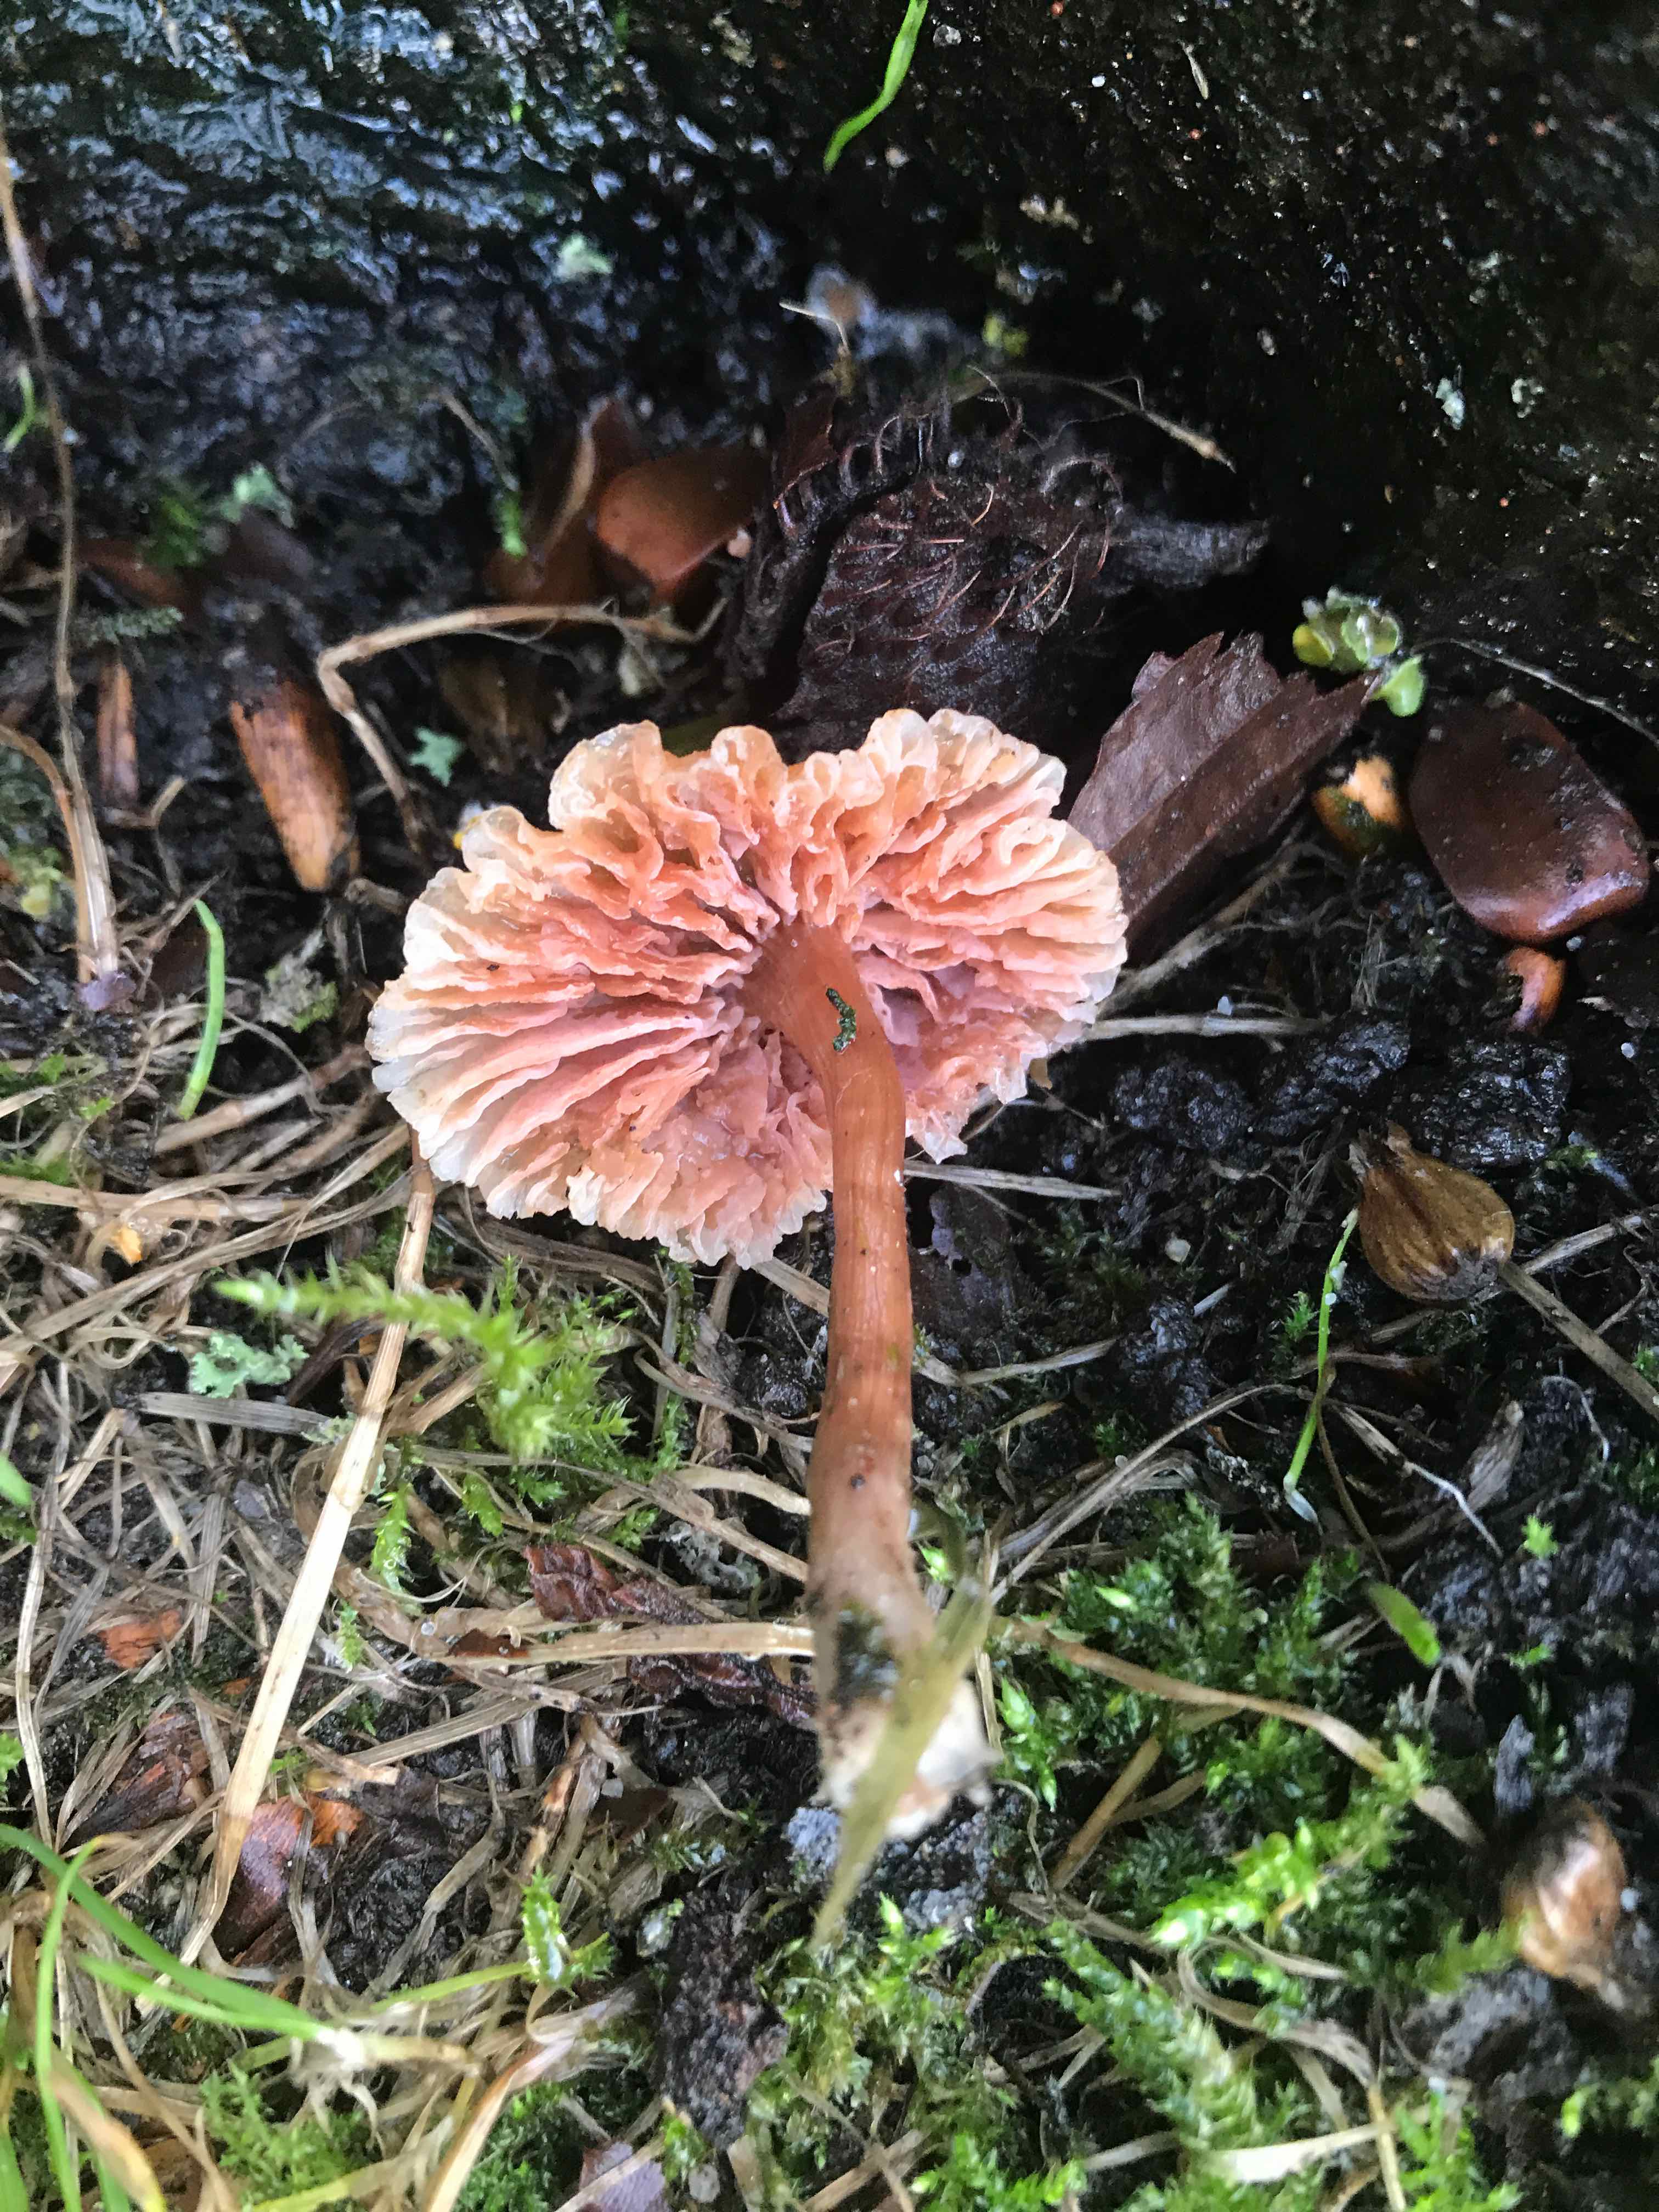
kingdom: Fungi
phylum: Basidiomycota
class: Agaricomycetes
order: Agaricales
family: Hydnangiaceae
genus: Laccaria
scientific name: Laccaria
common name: ametysthat
